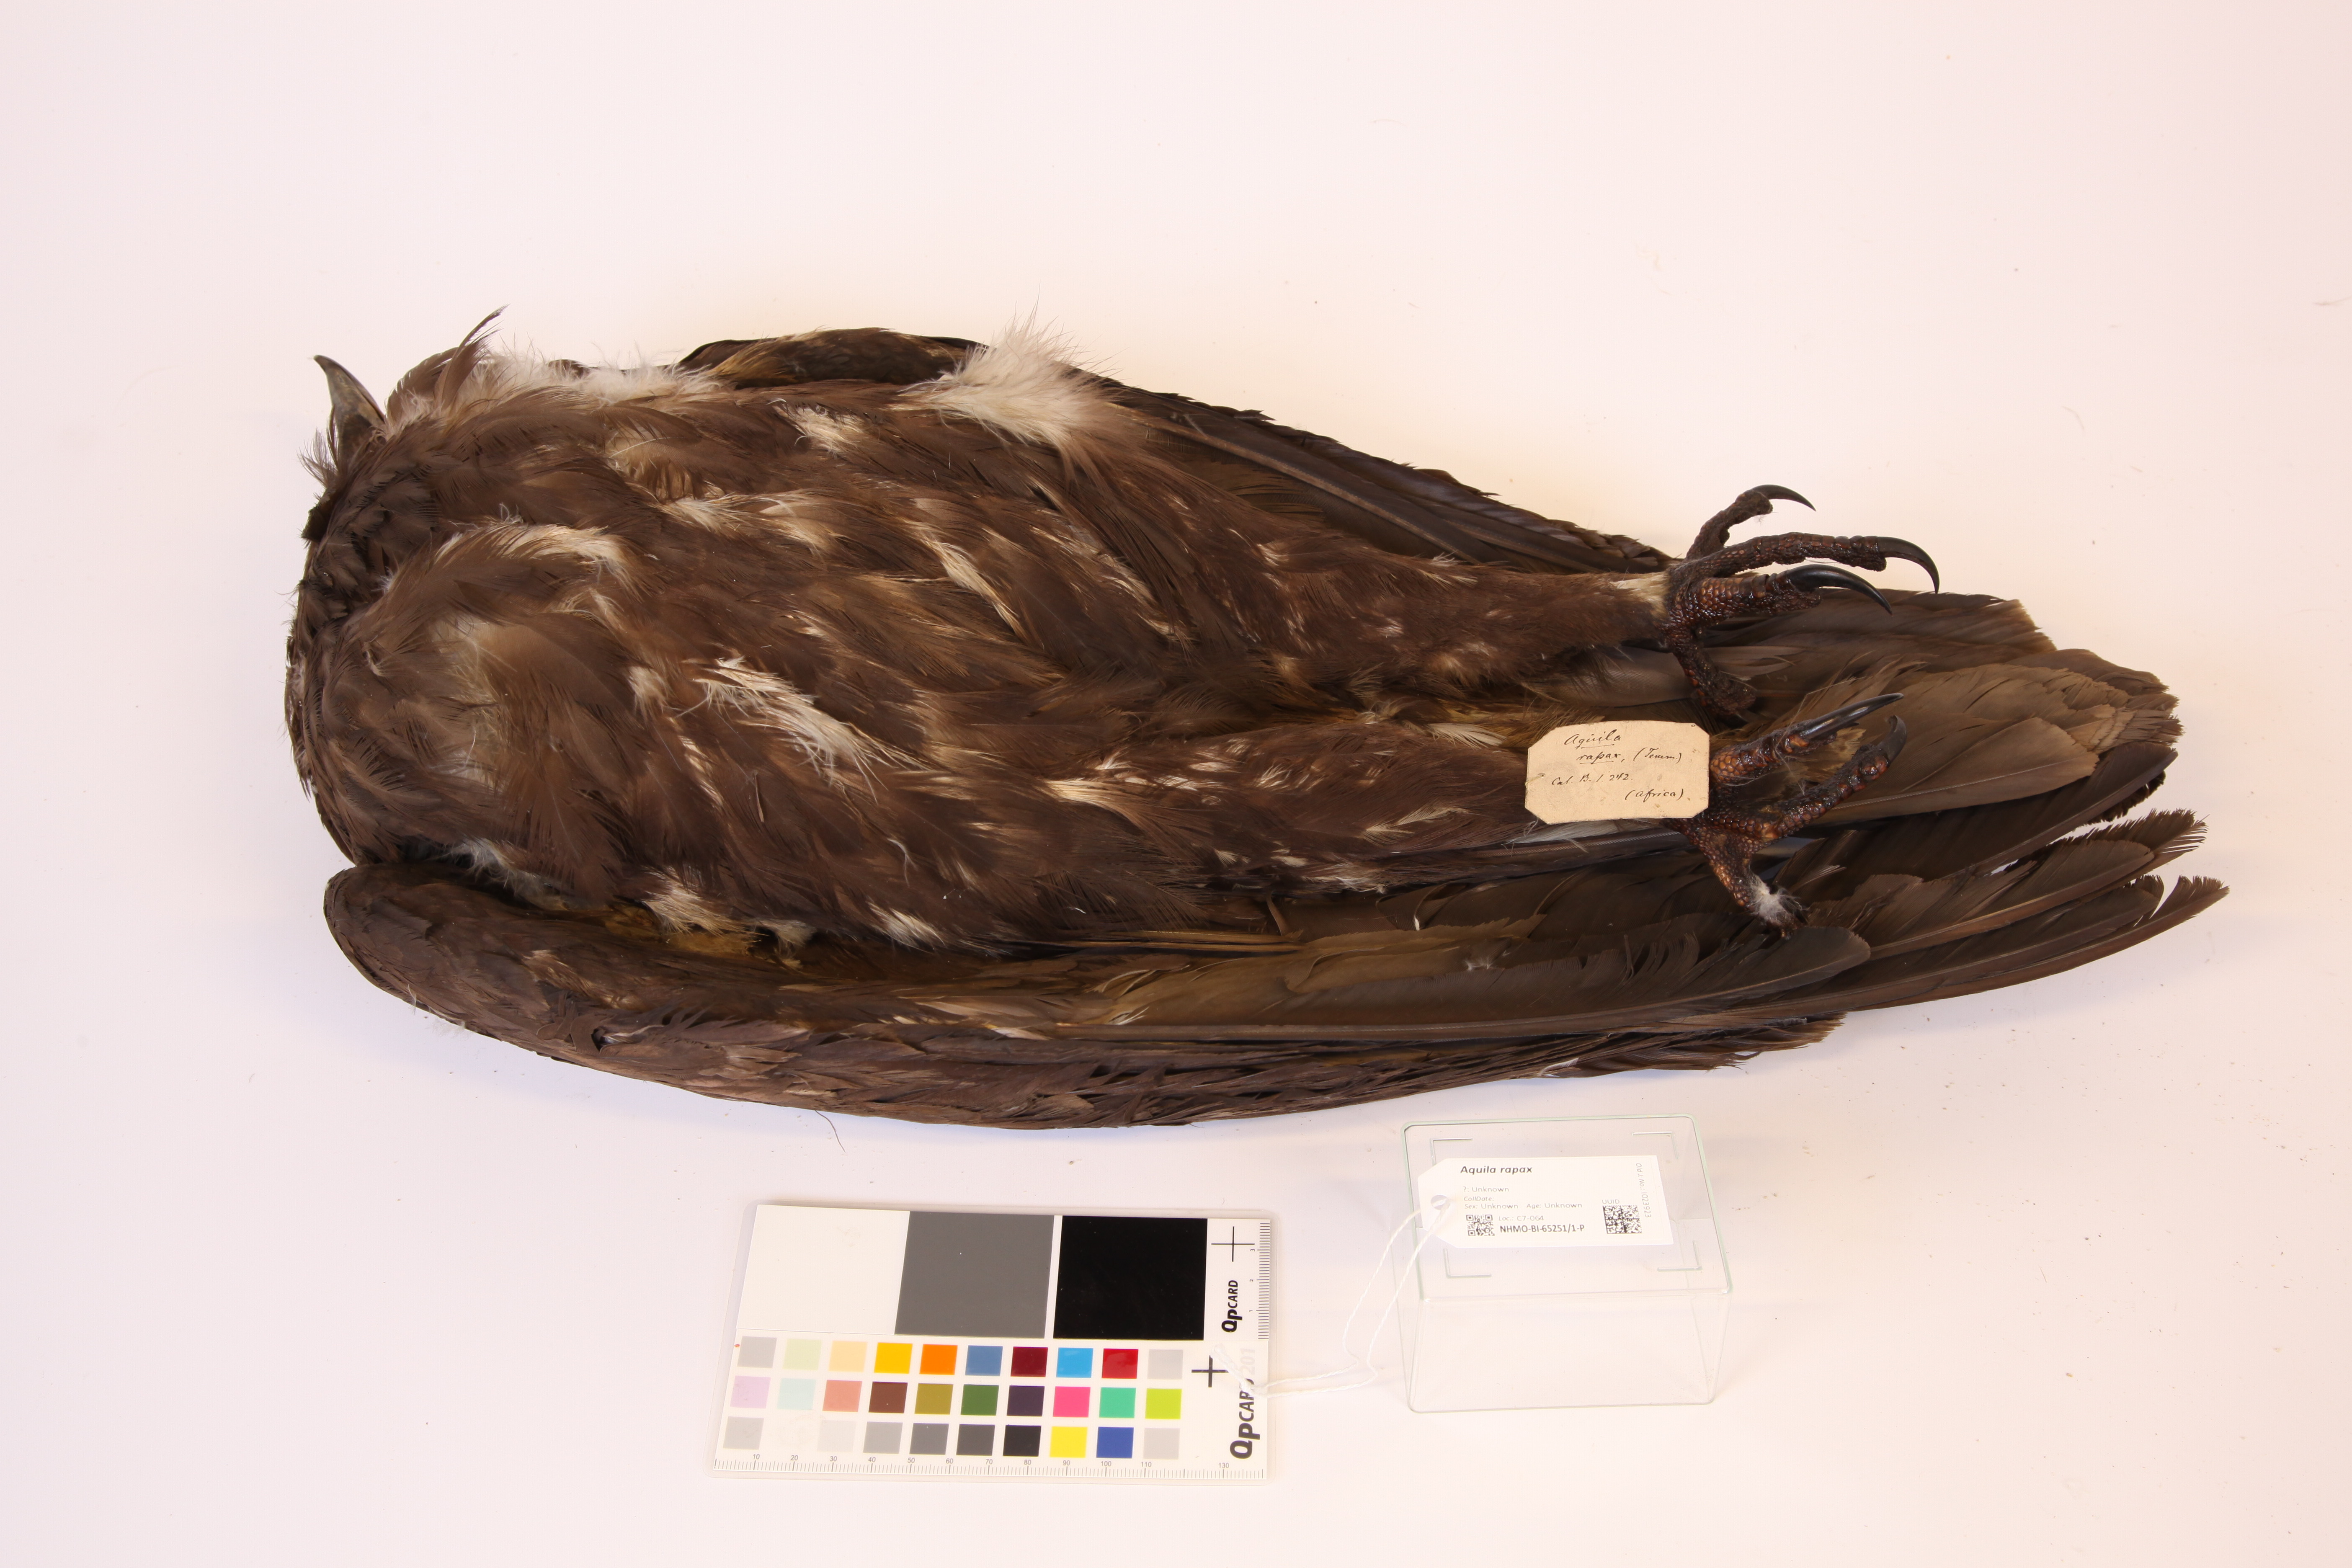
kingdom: Animalia
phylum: Chordata
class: Aves
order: Accipitriformes
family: Accipitridae
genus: Aquila
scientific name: Aquila rapax
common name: Tawny eagle
